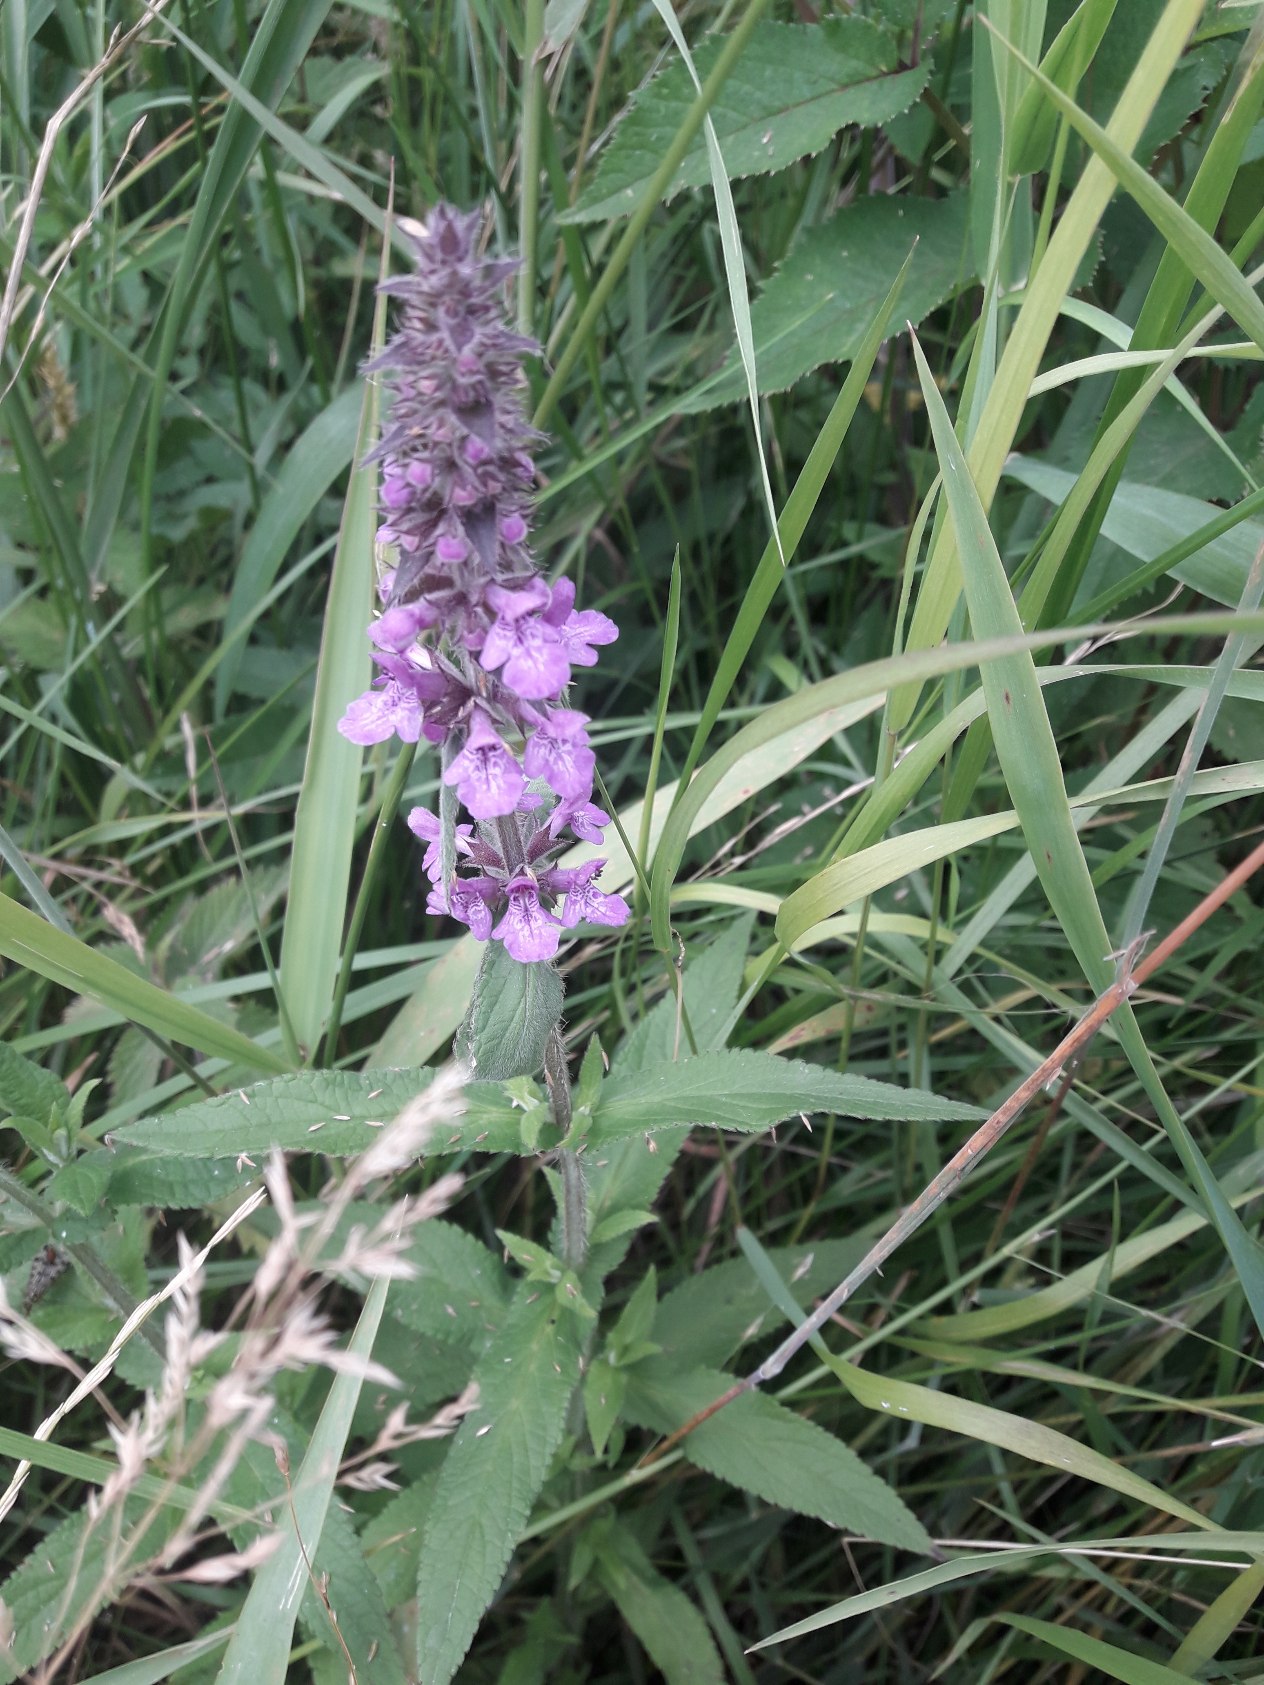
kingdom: Plantae
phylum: Tracheophyta
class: Magnoliopsida
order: Lamiales
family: Lamiaceae
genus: Stachys
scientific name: Stachys palustris
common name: Kær-galtetand
